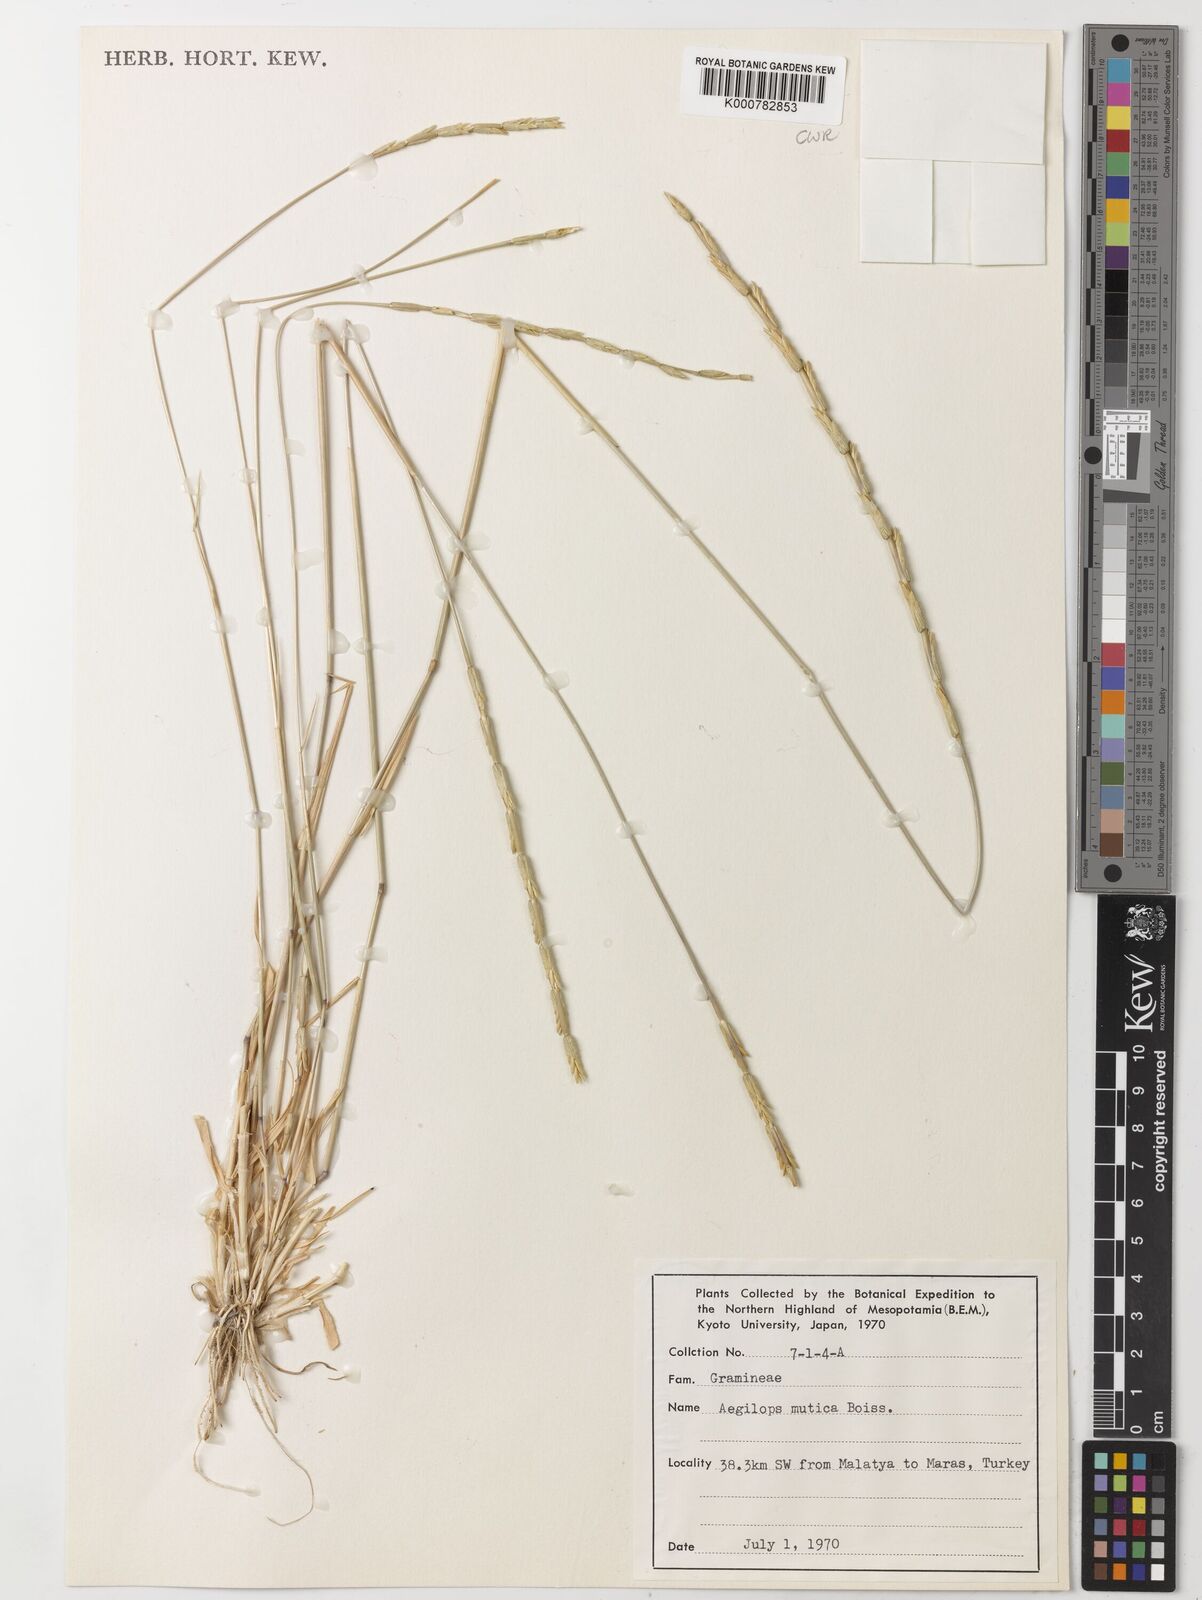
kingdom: Plantae
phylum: Tracheophyta
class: Liliopsida
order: Poales
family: Poaceae
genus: Aegilops
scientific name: Aegilops mutica
